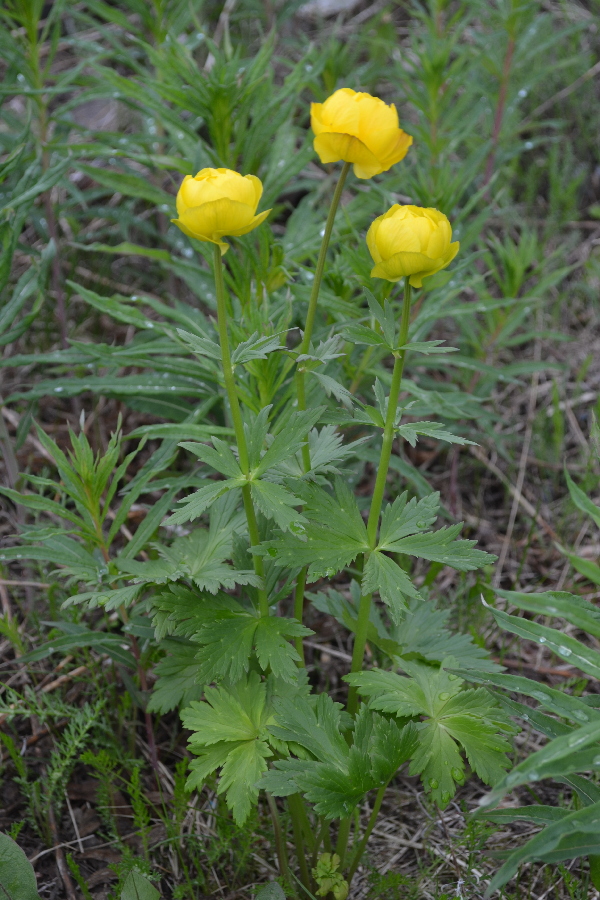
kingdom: Plantae
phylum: Tracheophyta
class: Magnoliopsida
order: Ranunculales
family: Ranunculaceae
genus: Trollius
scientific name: Trollius apertus
